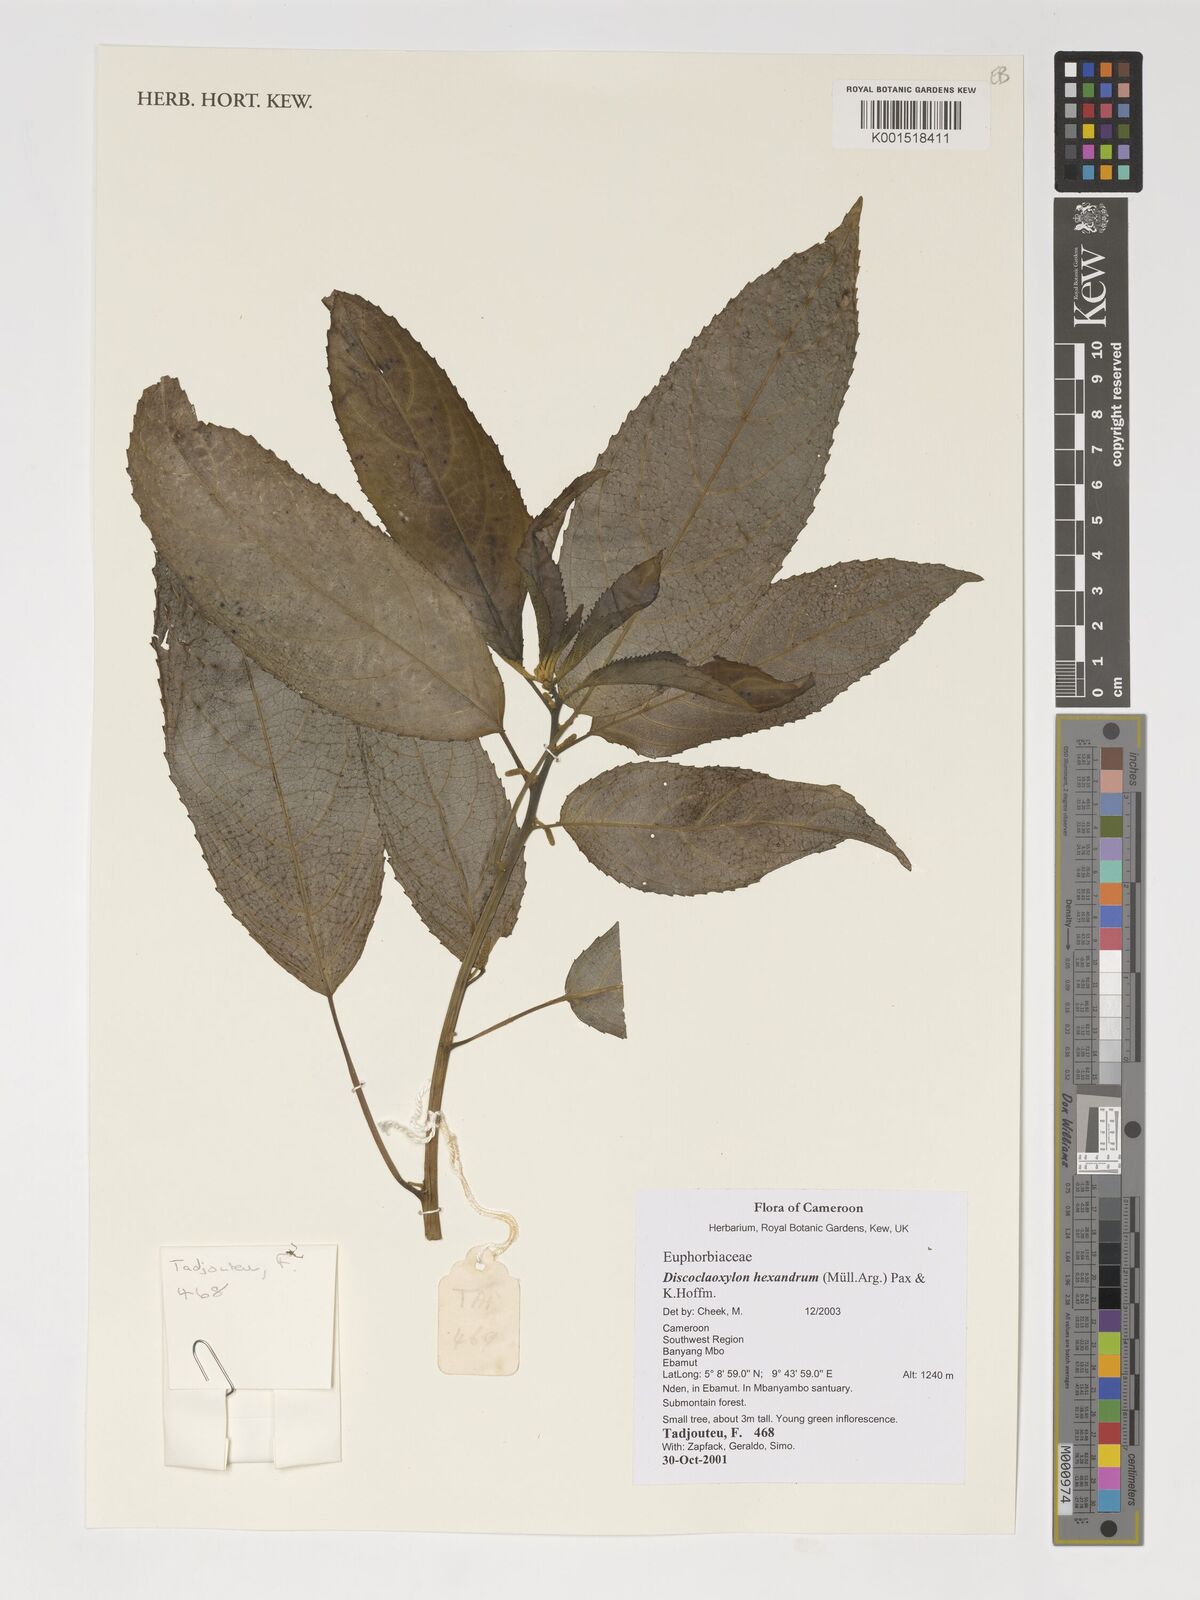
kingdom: Plantae
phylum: Tracheophyta
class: Magnoliopsida
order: Malpighiales
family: Euphorbiaceae
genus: Discoclaoxylon
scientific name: Discoclaoxylon hexandrum
